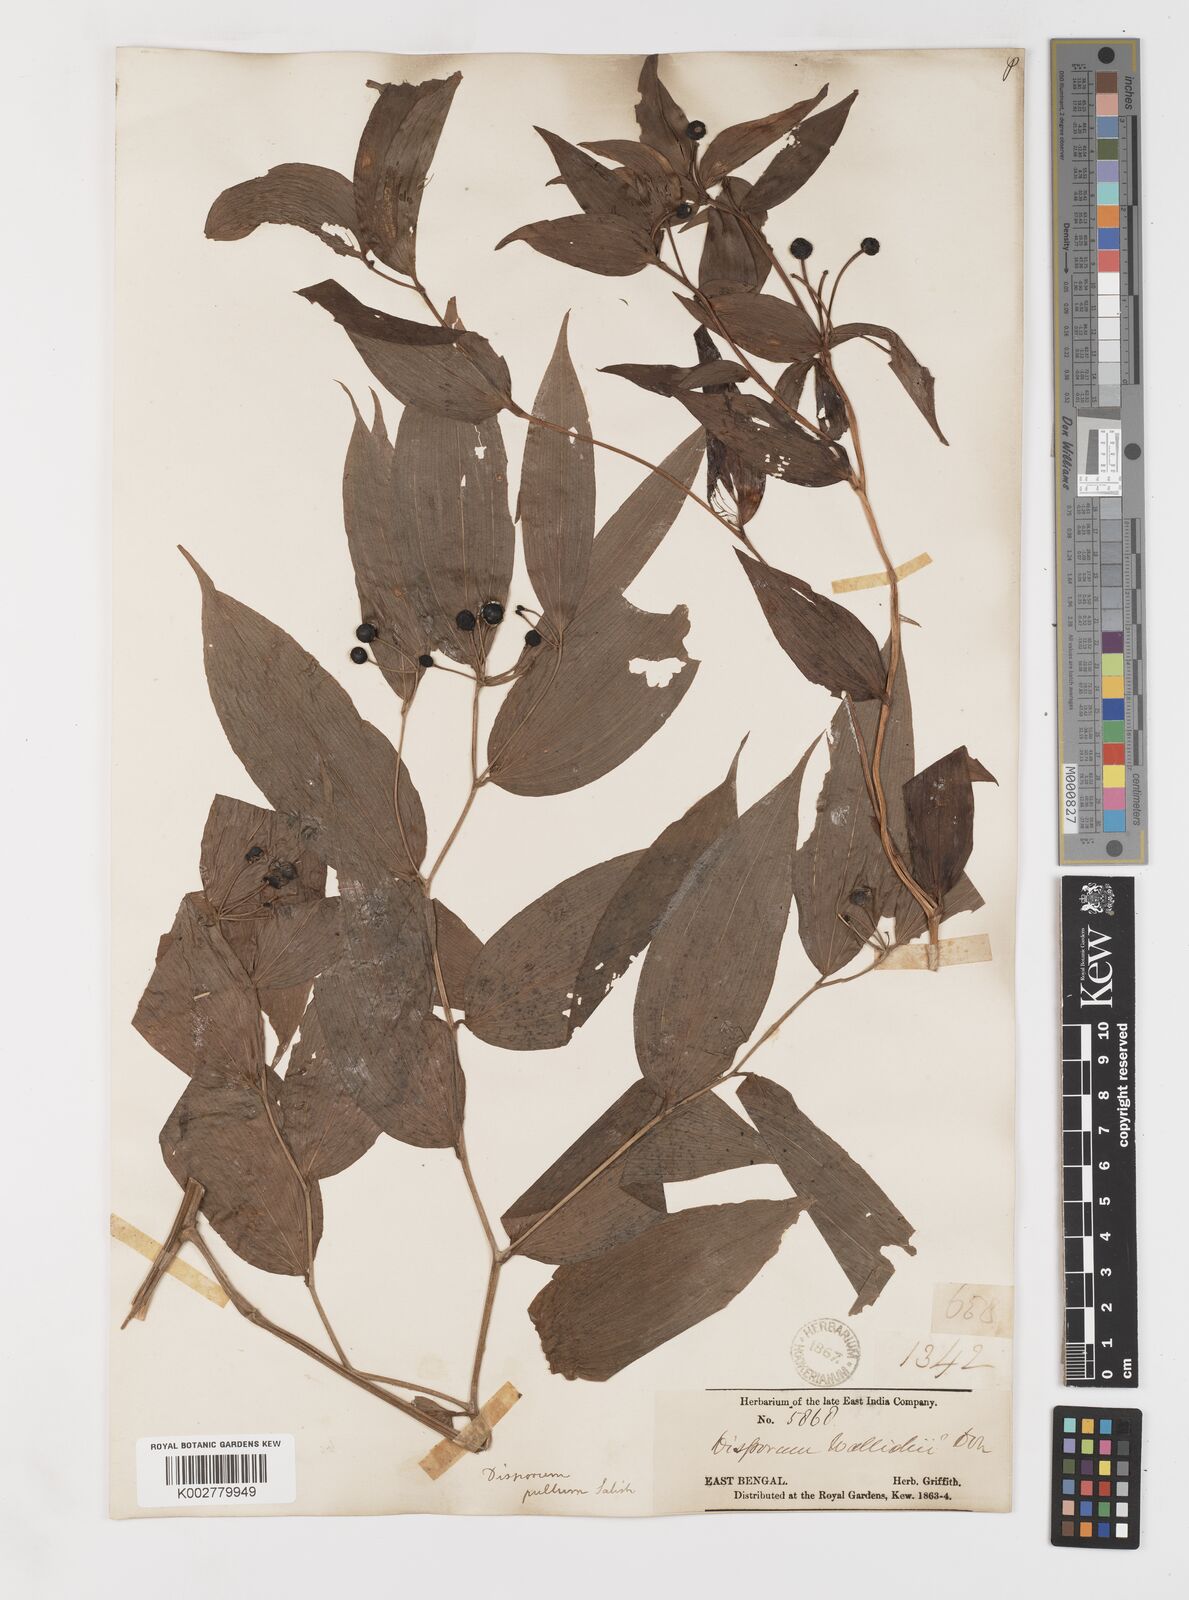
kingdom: Plantae
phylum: Tracheophyta
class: Liliopsida
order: Liliales
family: Colchicaceae
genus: Disporum
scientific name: Disporum cantoniense
